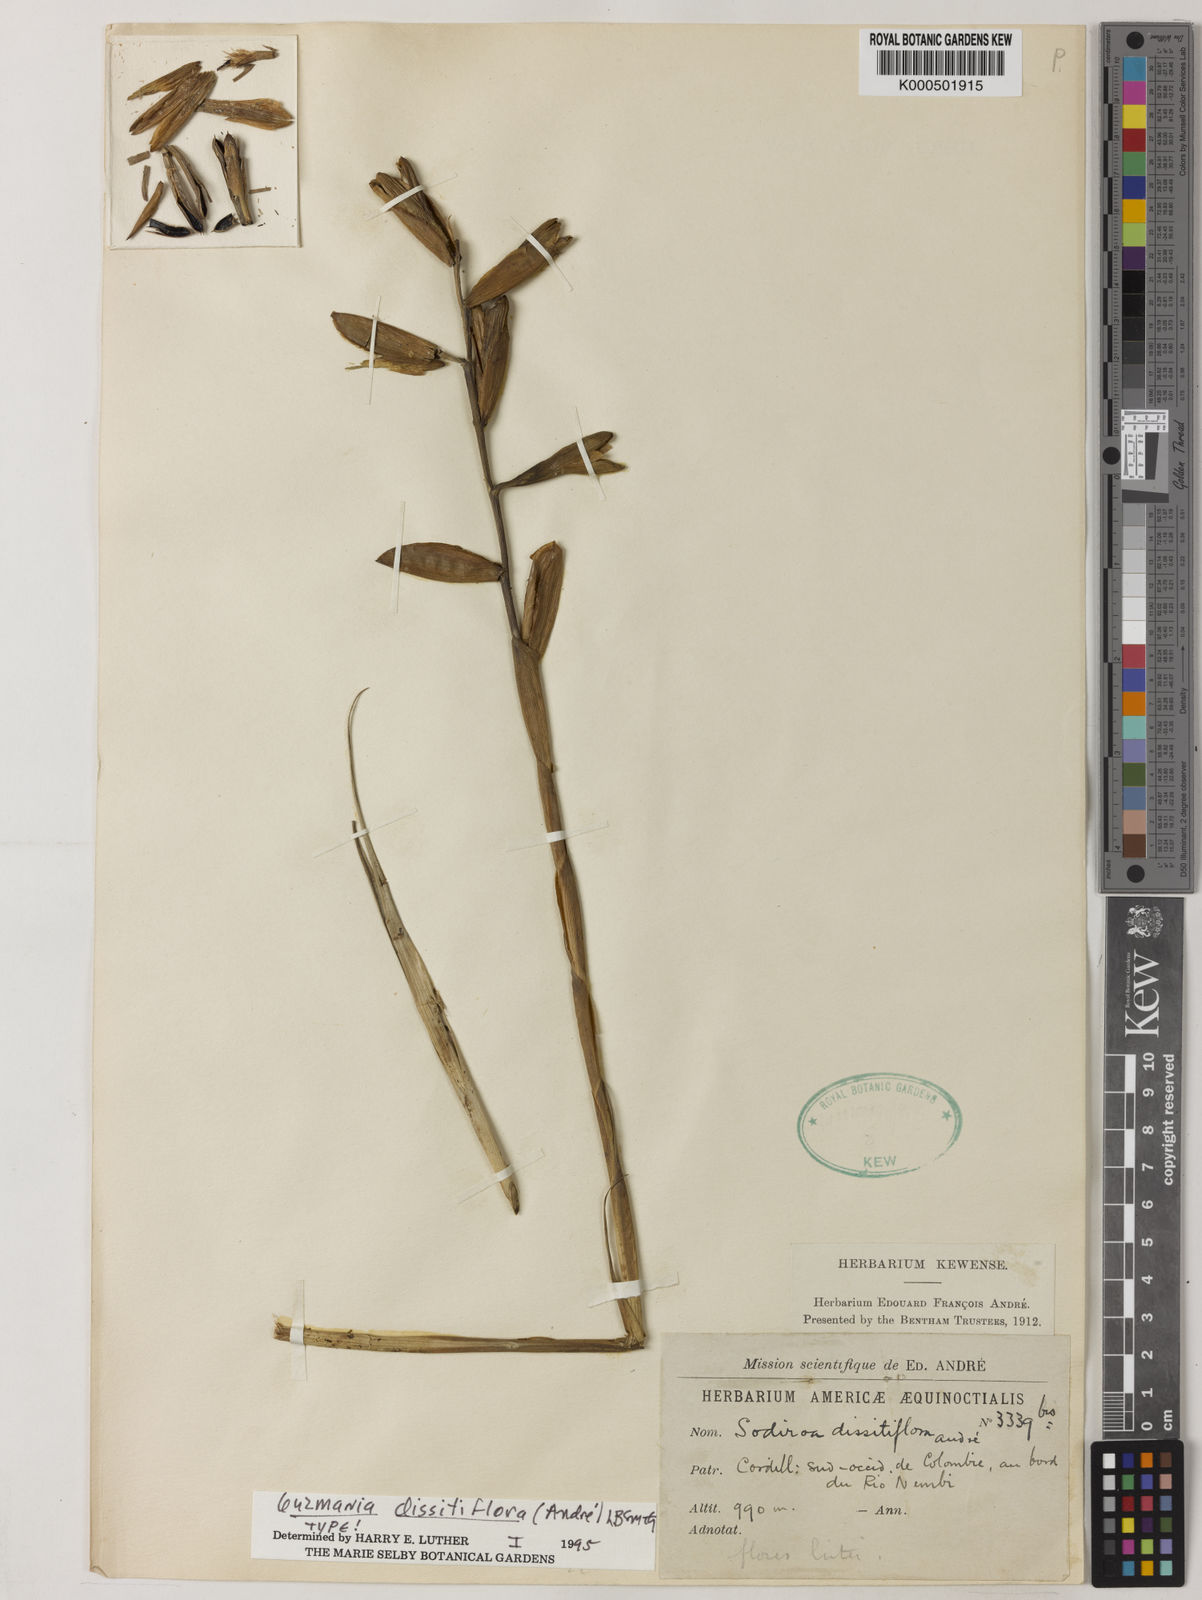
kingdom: Plantae
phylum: Tracheophyta
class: Liliopsida
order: Poales
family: Bromeliaceae
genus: Guzmania
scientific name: Guzmania
